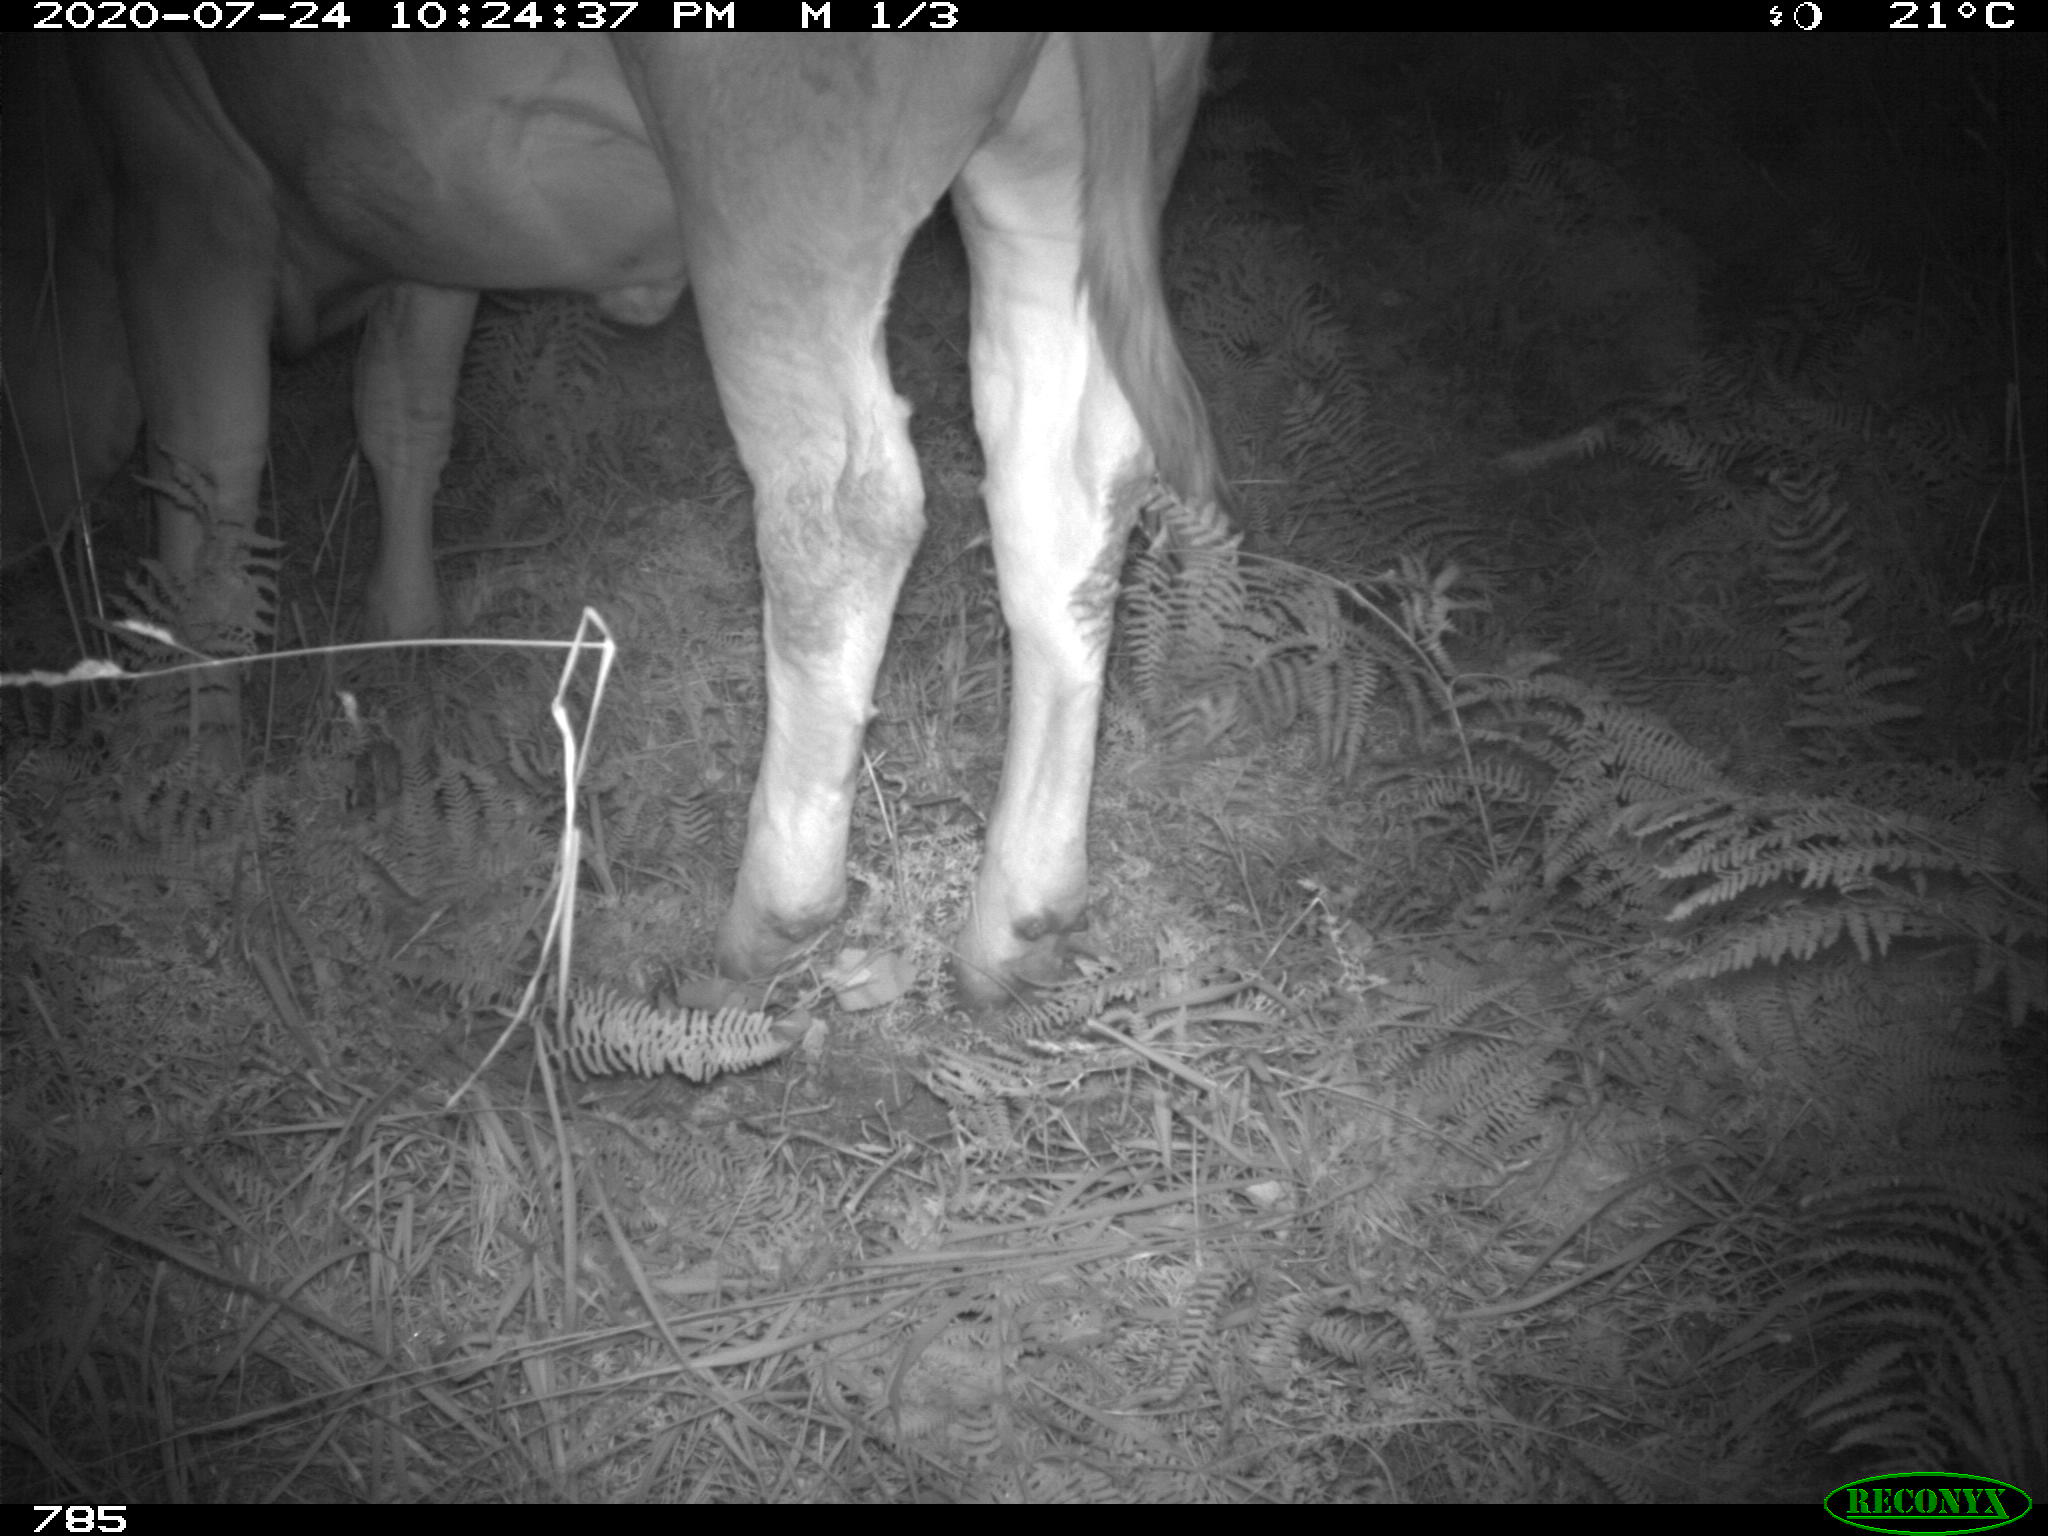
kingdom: Animalia
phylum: Chordata
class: Mammalia
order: Artiodactyla
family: Bovidae
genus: Bos
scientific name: Bos taurus
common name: Domesticated cattle
